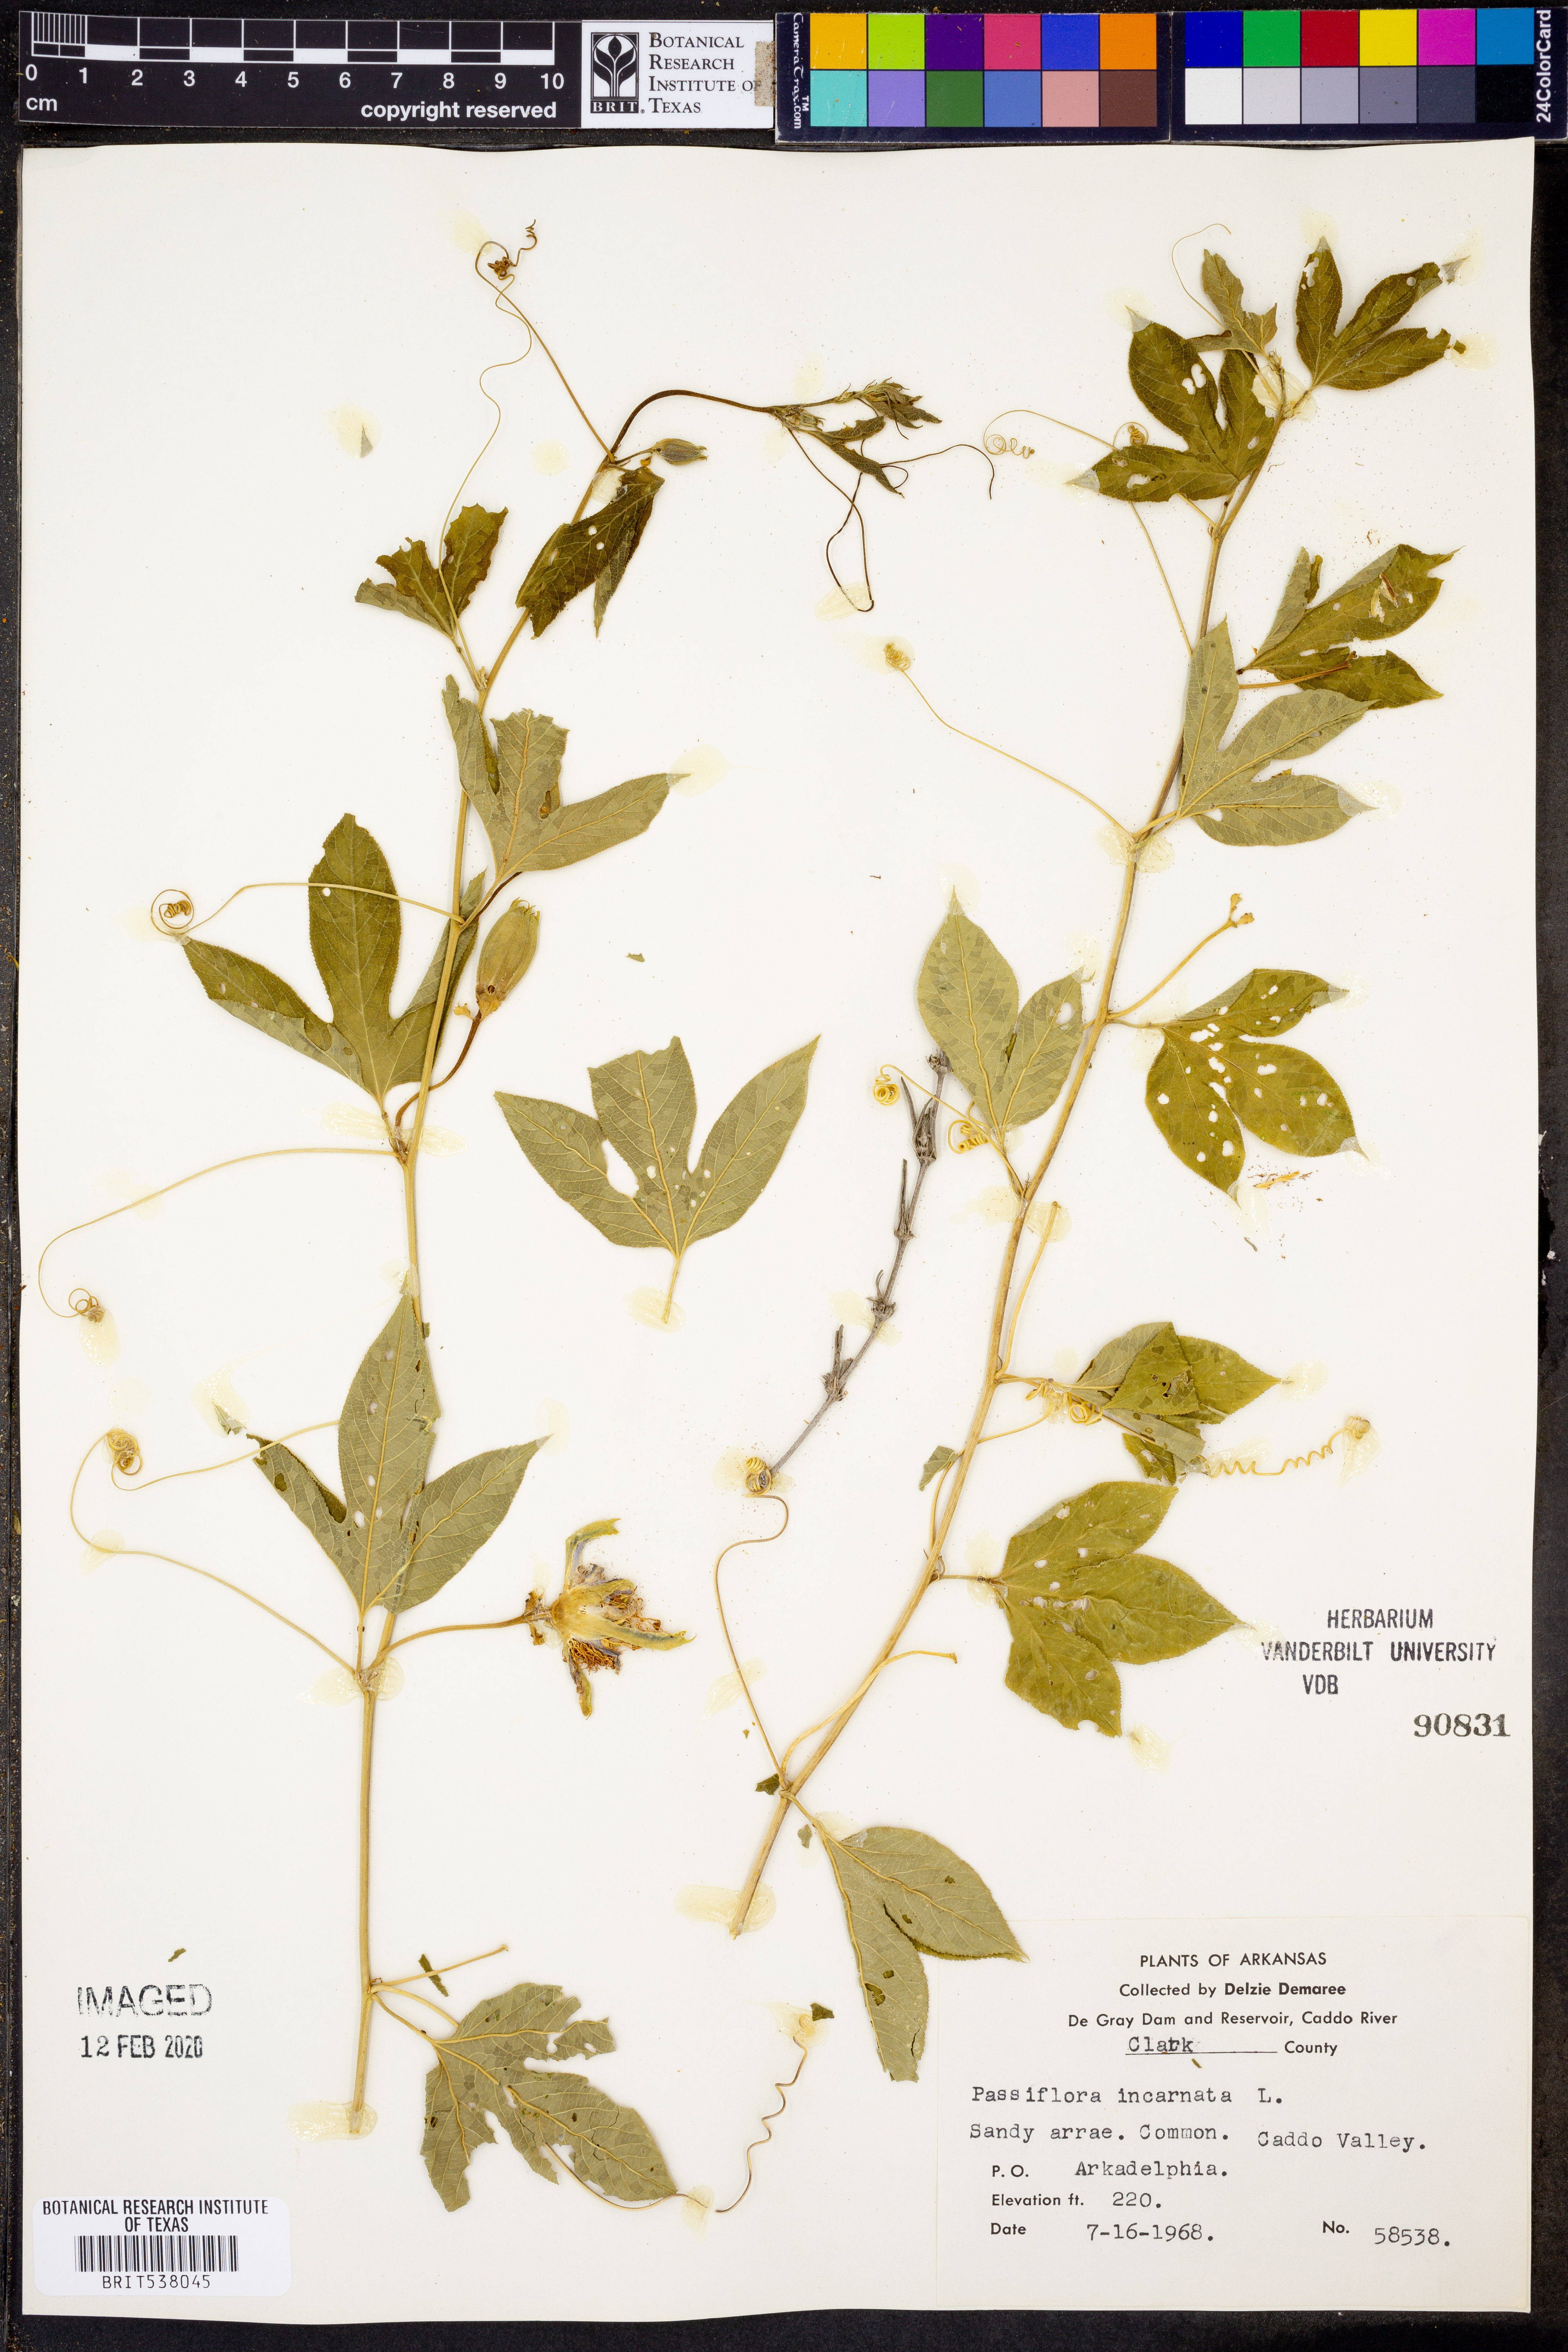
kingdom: Plantae
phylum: Tracheophyta
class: Magnoliopsida
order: Malpighiales
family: Passifloraceae
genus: Passiflora
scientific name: Passiflora incarnata
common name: Apricot-vine
